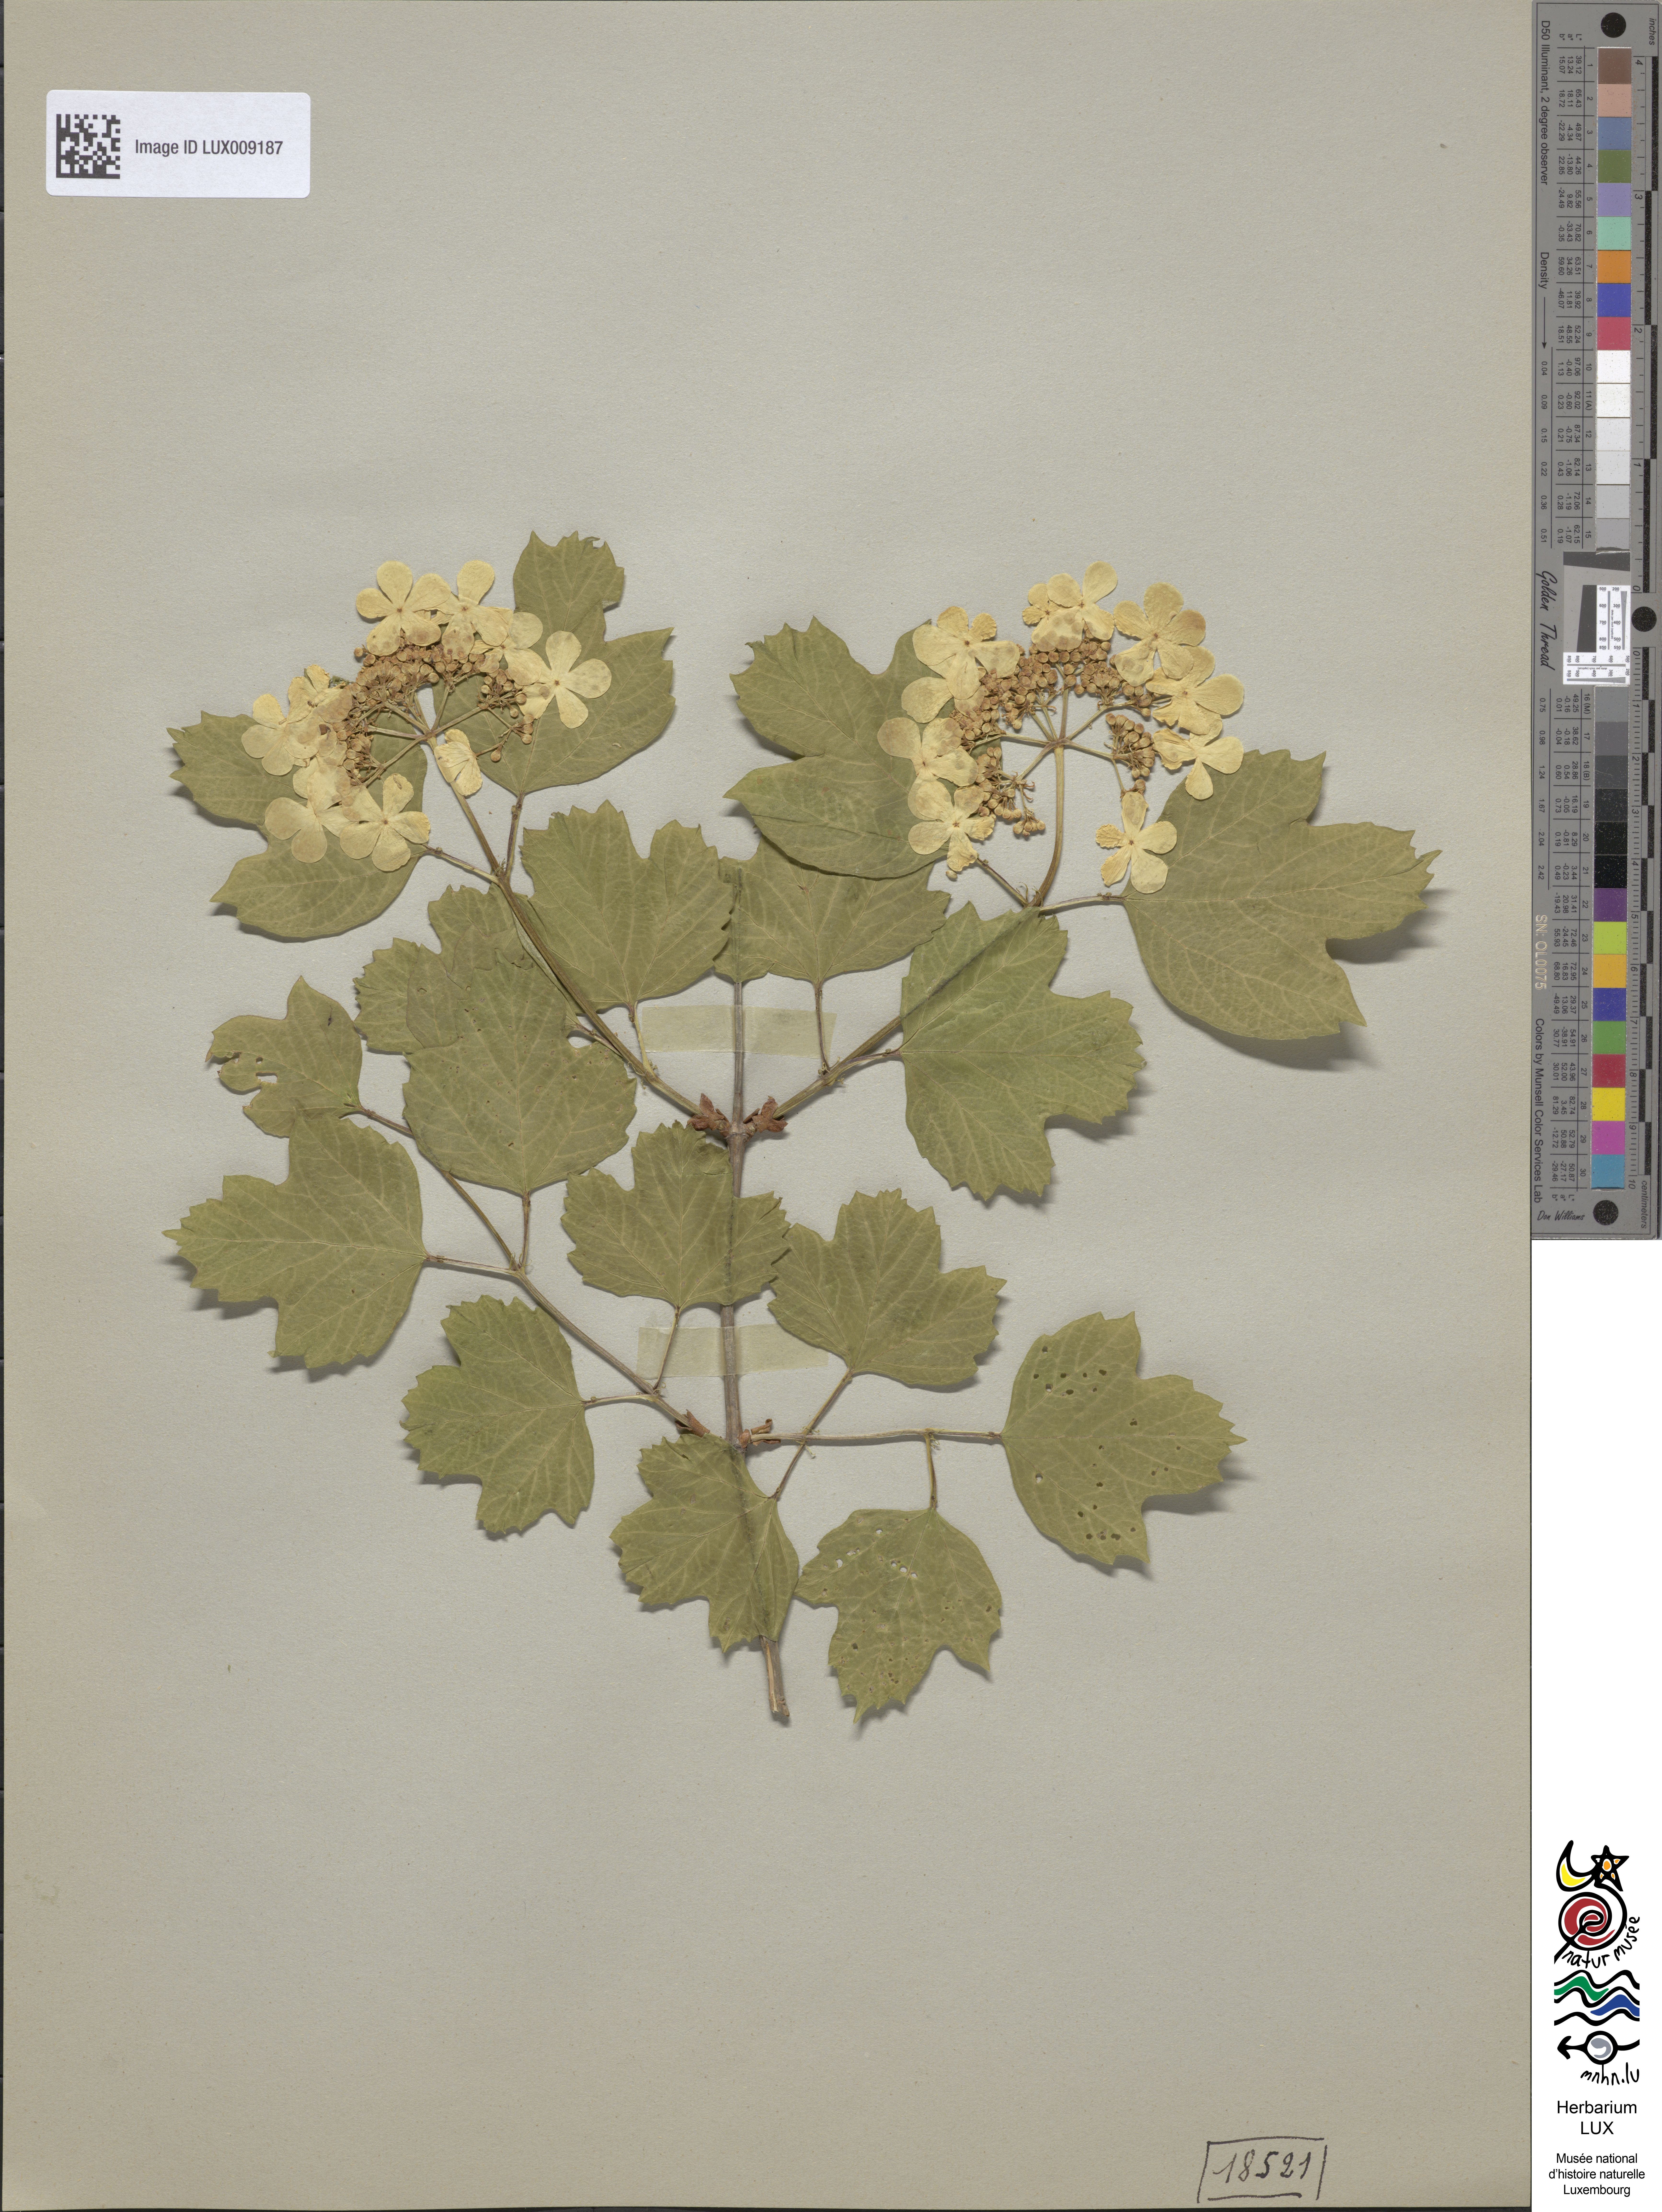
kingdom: Plantae
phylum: Tracheophyta
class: Magnoliopsida
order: Dipsacales
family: Viburnaceae
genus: Viburnum
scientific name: Viburnum opulus
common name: Guelder-rose
